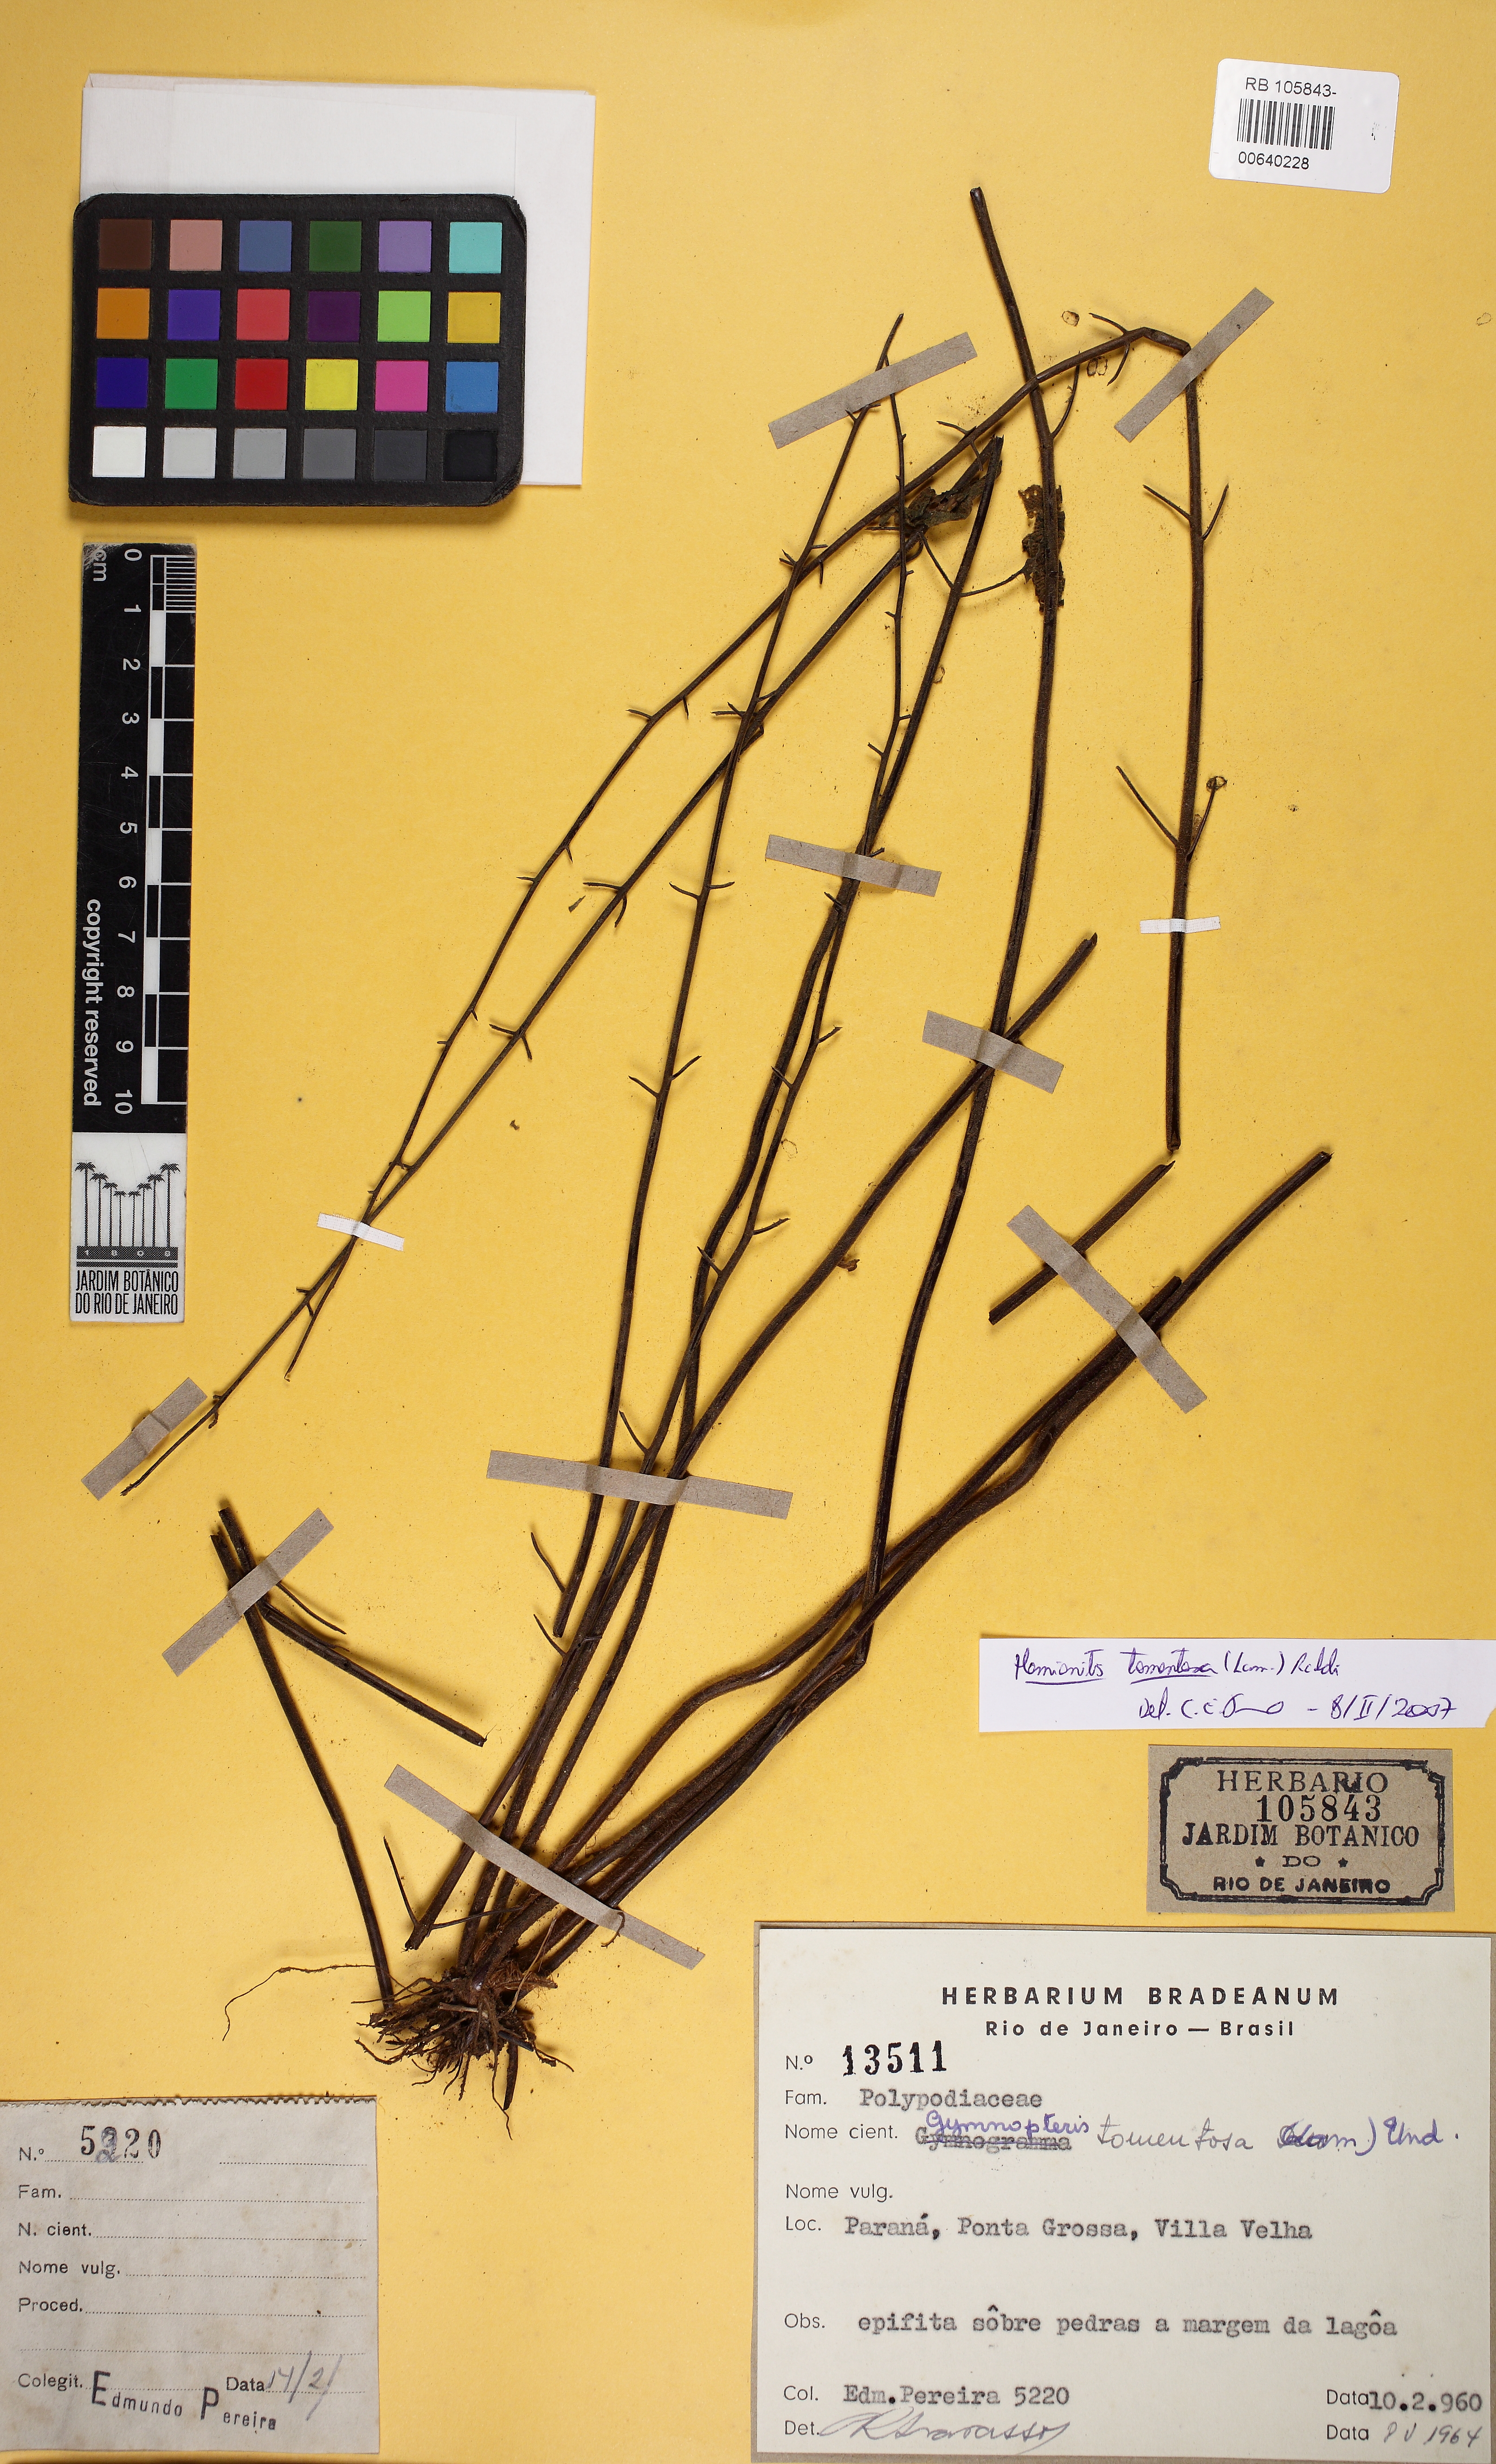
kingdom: Plantae
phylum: Tracheophyta
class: Polypodiopsida
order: Polypodiales
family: Pteridaceae
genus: Hemionitis
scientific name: Hemionitis tomentosa
